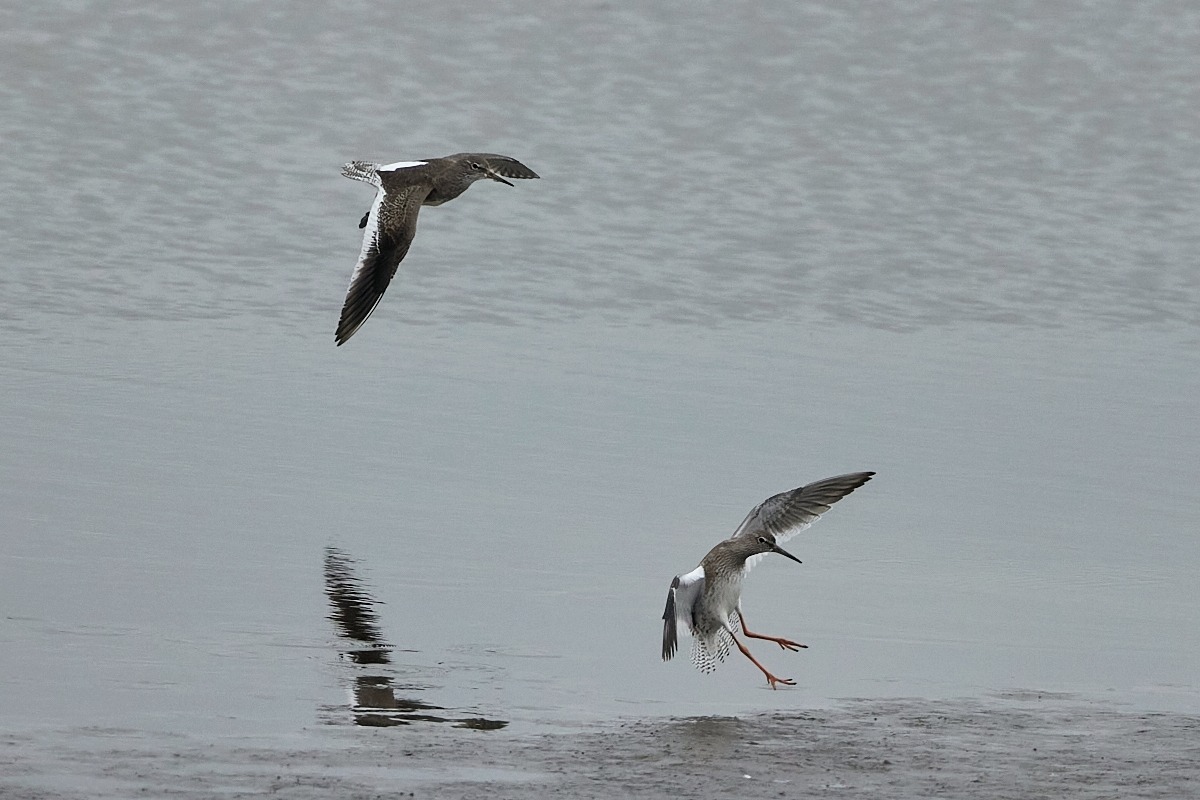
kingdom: Animalia
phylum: Chordata
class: Aves
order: Charadriiformes
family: Scolopacidae
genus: Tringa
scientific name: Tringa totanus
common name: Rødben
